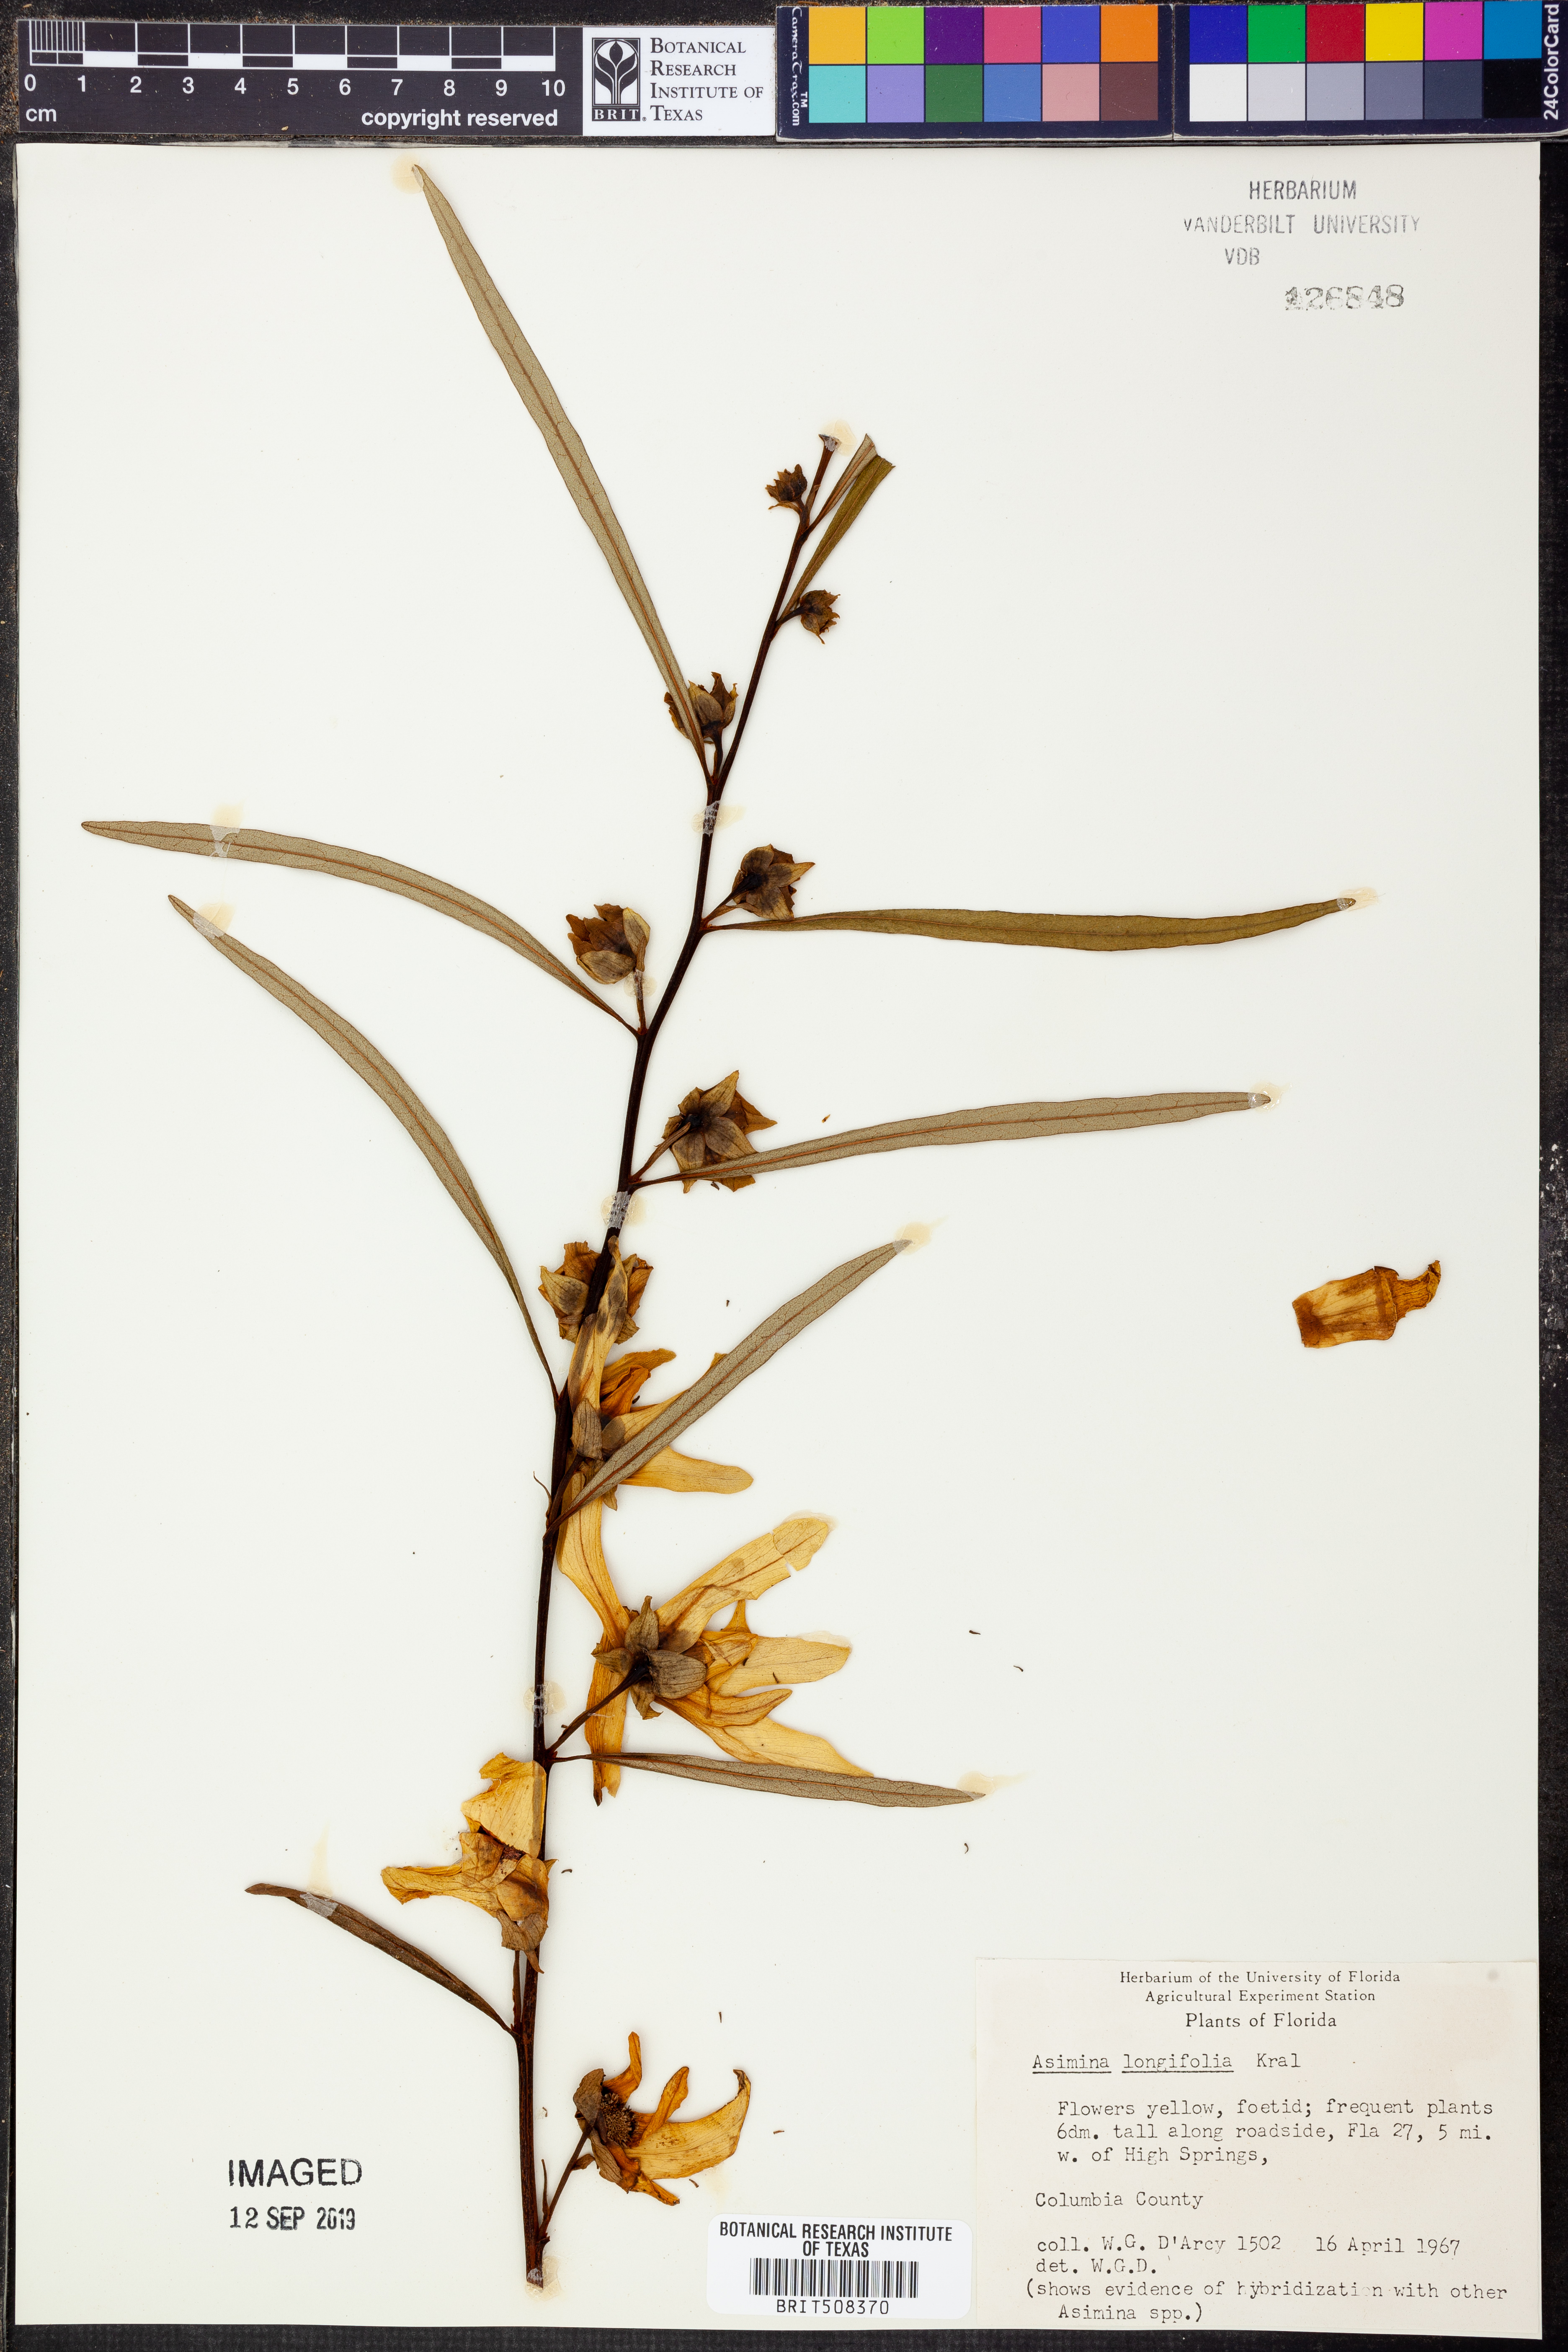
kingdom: Plantae
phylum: Tracheophyta
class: Magnoliopsida
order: Magnoliales
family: Annonaceae
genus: Asimina
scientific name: Asimina longifolia
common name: Polecatbush
